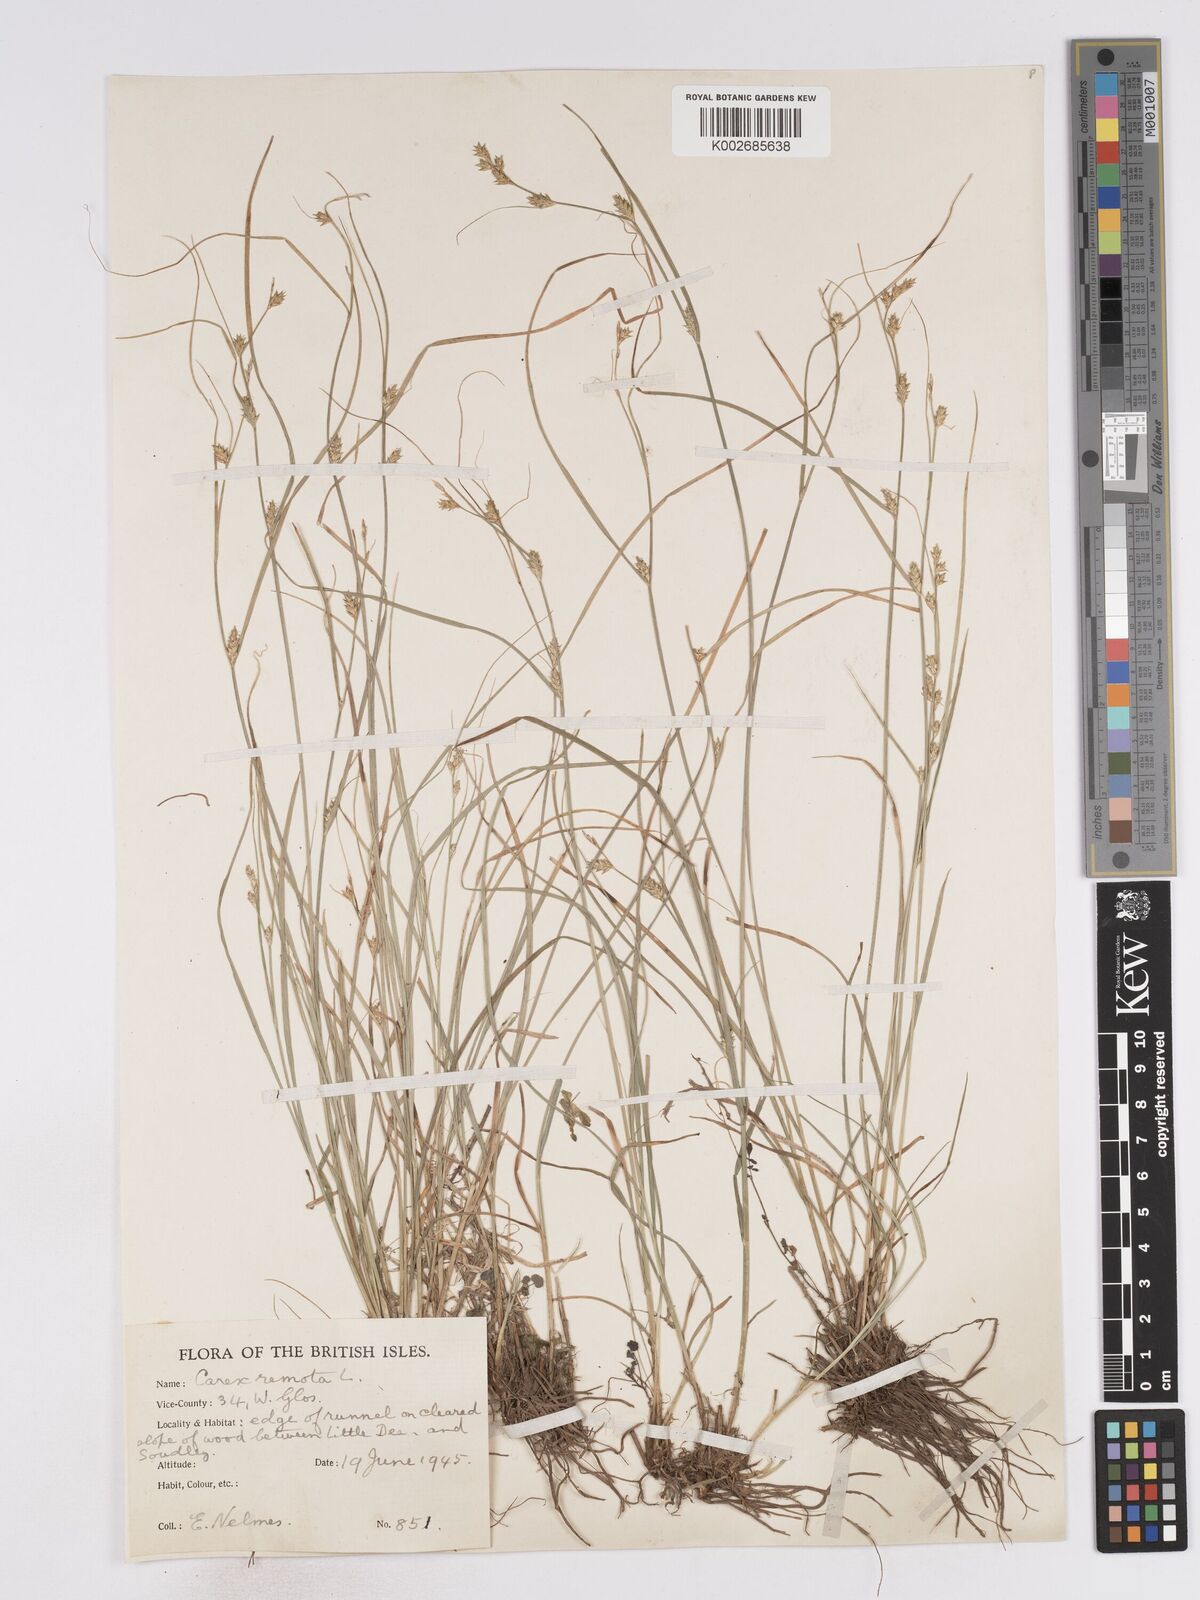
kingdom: Plantae
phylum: Tracheophyta
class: Liliopsida
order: Poales
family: Cyperaceae
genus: Carex
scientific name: Carex remota
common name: Remote sedge
